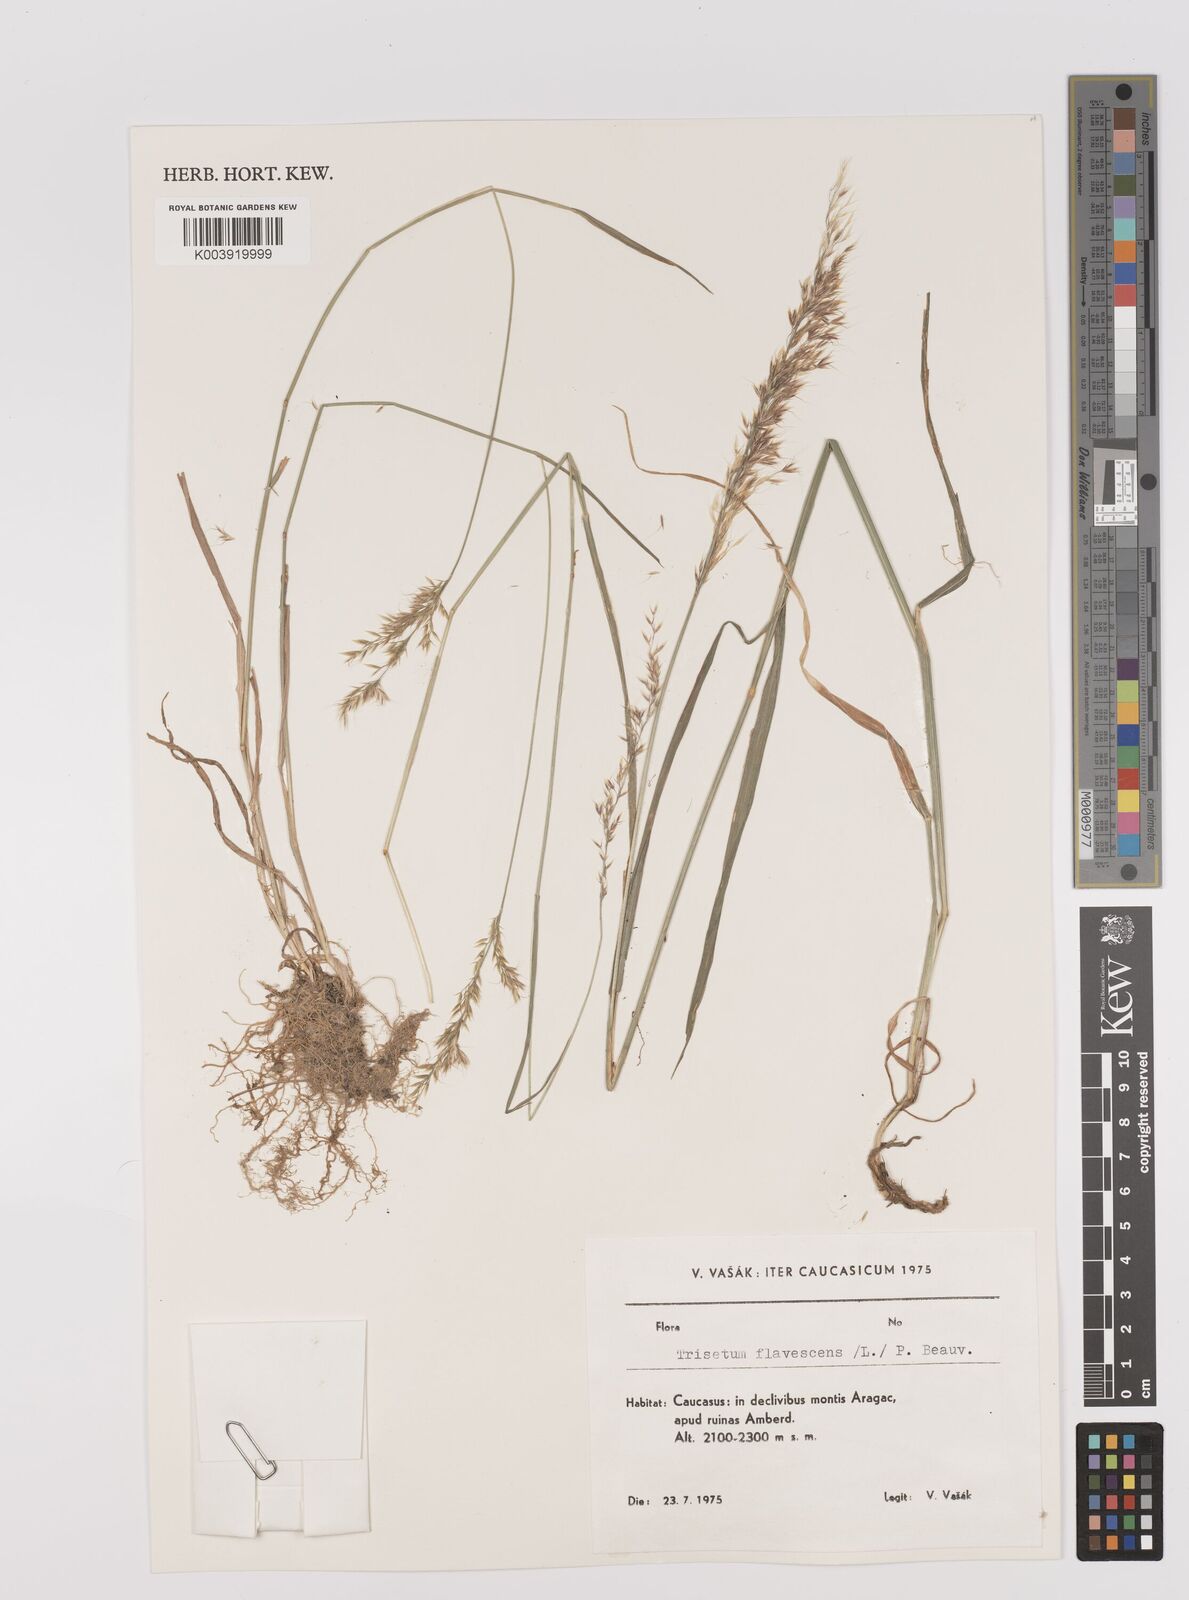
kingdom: Plantae
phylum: Tracheophyta
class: Liliopsida
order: Poales
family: Poaceae
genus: Trisetum
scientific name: Trisetum flavescens
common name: Yellow oat-grass
